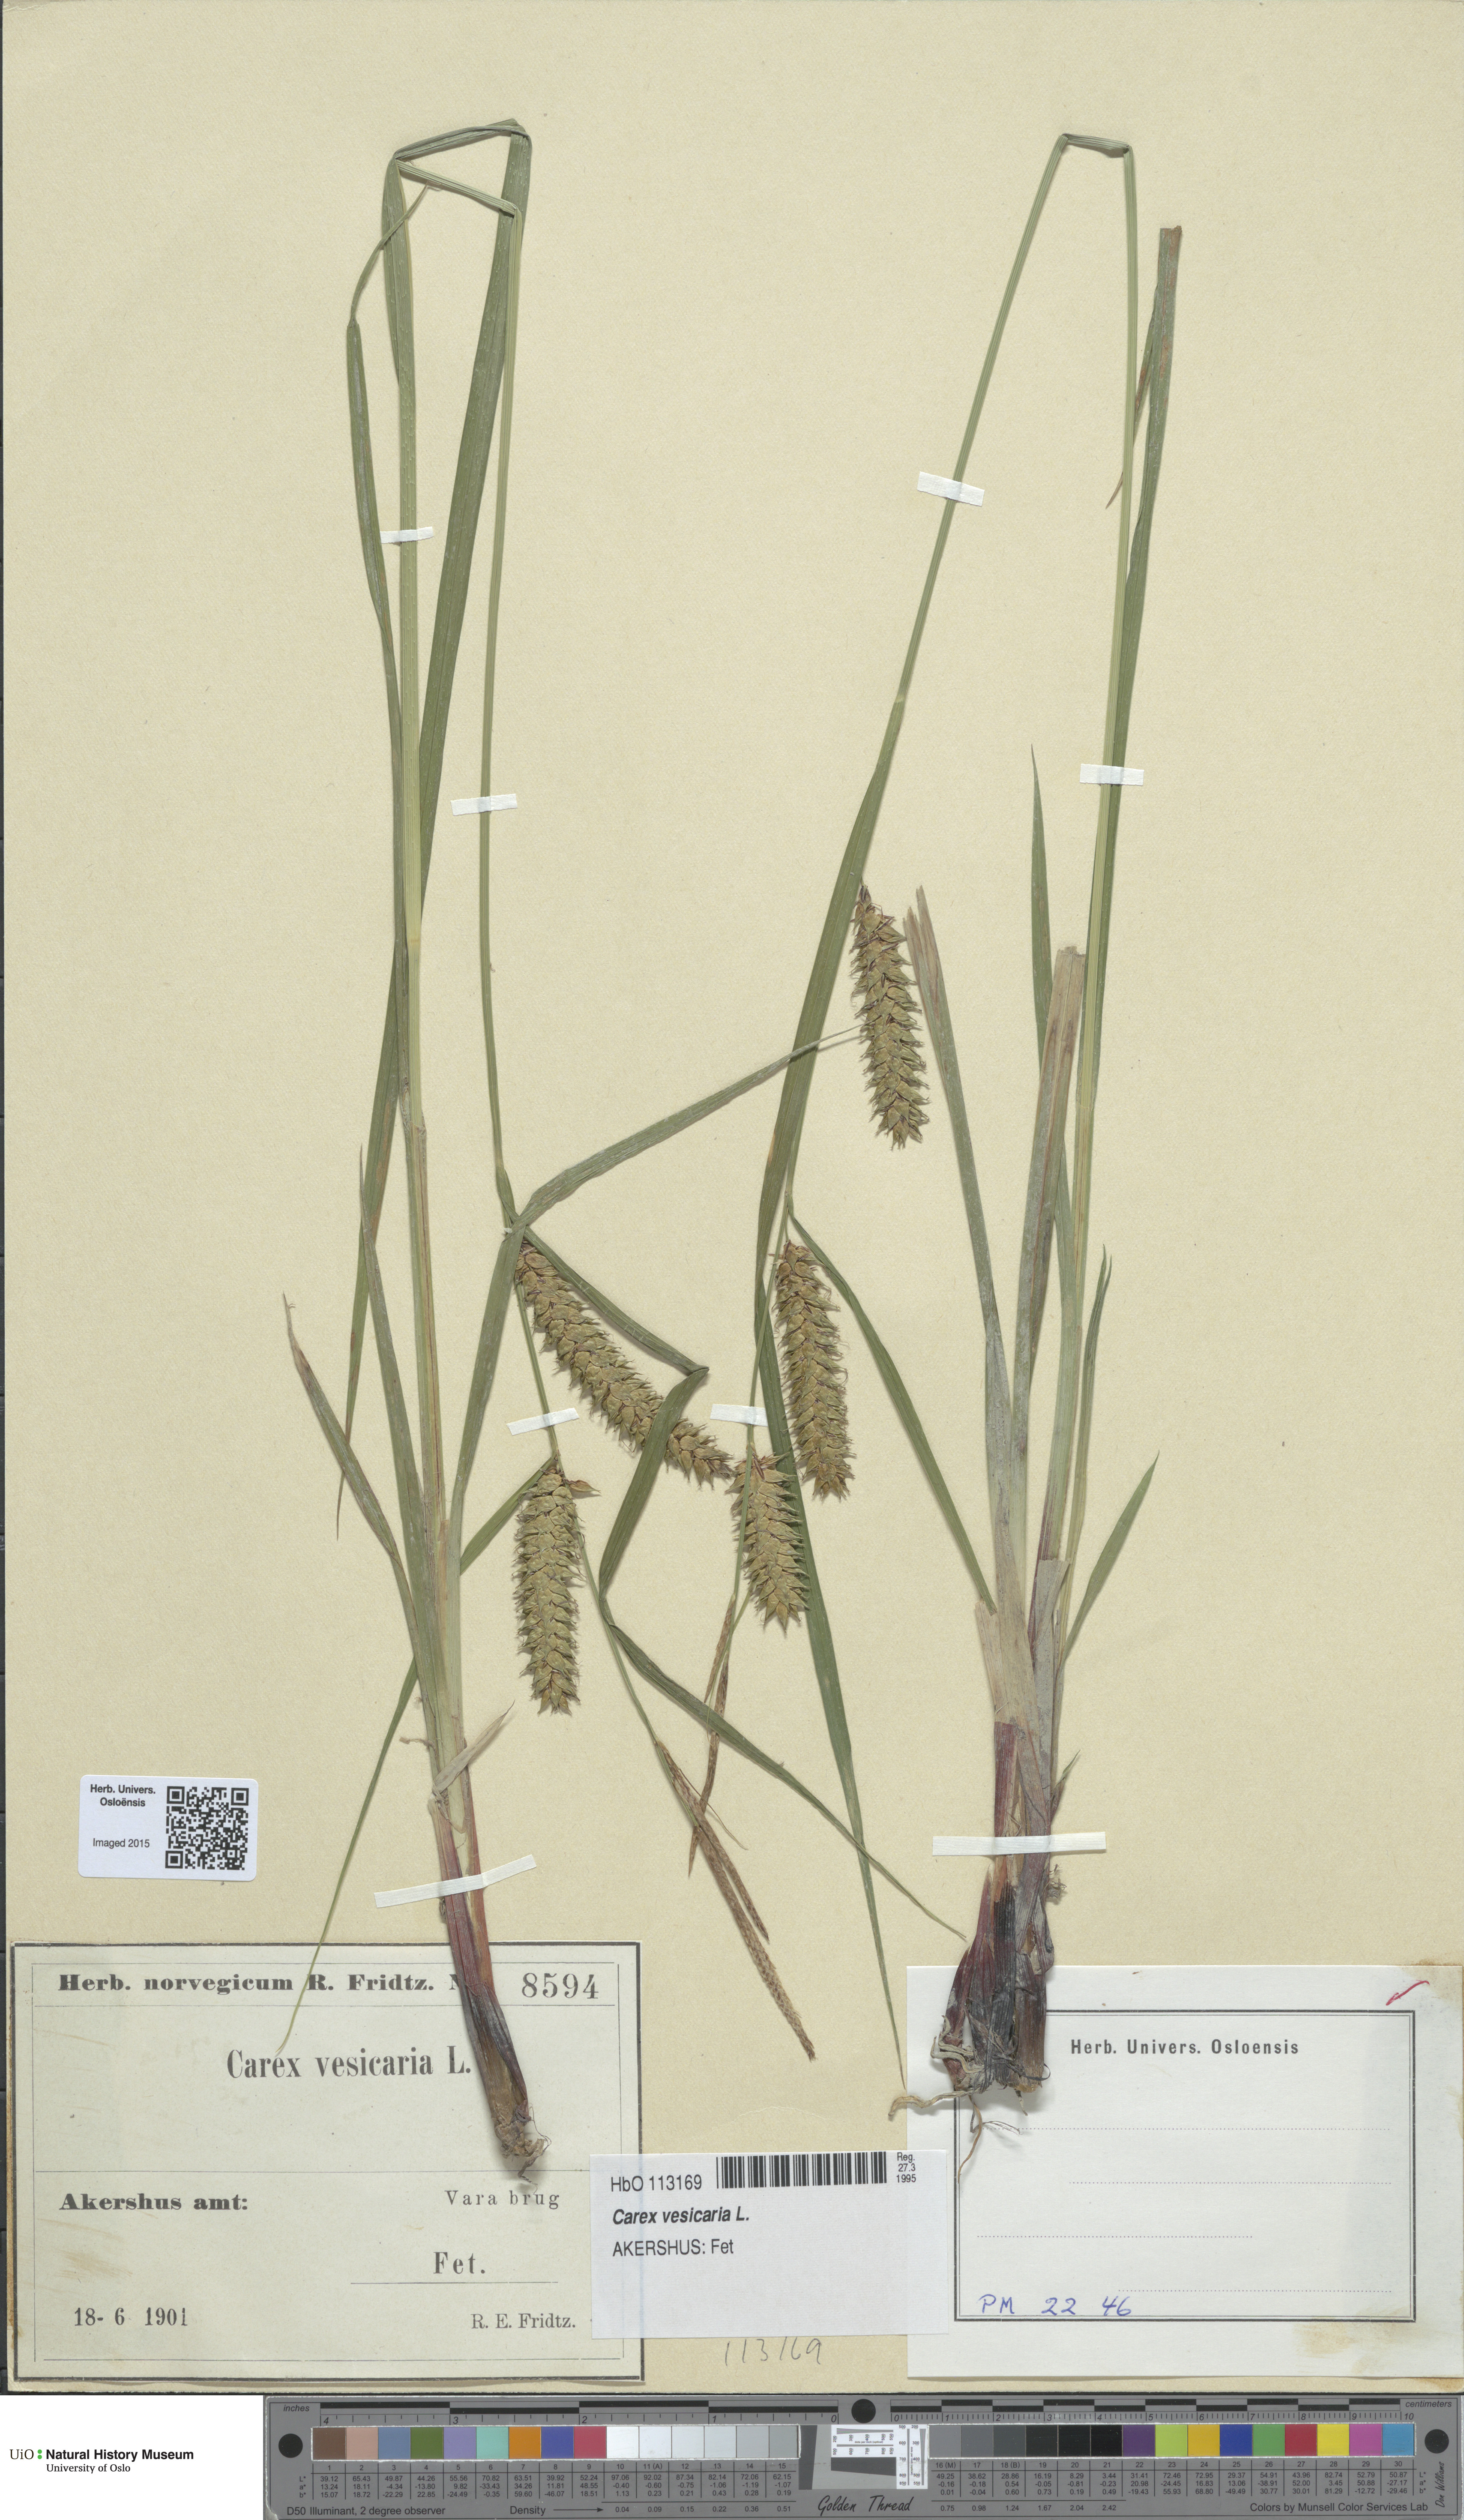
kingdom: Plantae
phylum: Tracheophyta
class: Liliopsida
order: Poales
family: Cyperaceae
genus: Carex
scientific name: Carex vesicaria
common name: Bladder-sedge
